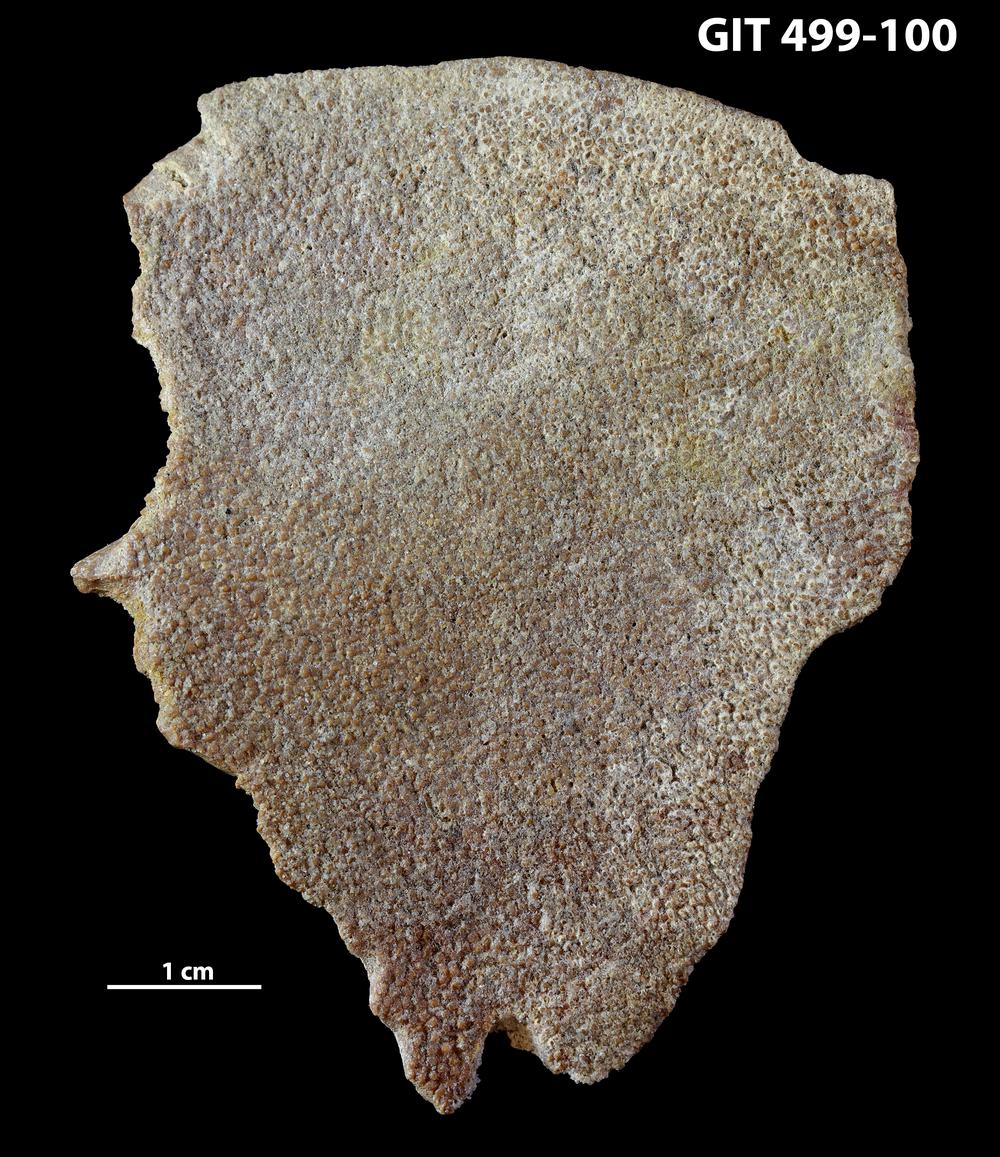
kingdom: Animalia
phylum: Chordata
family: Holoptychiidae
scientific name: Holoptychiidae
